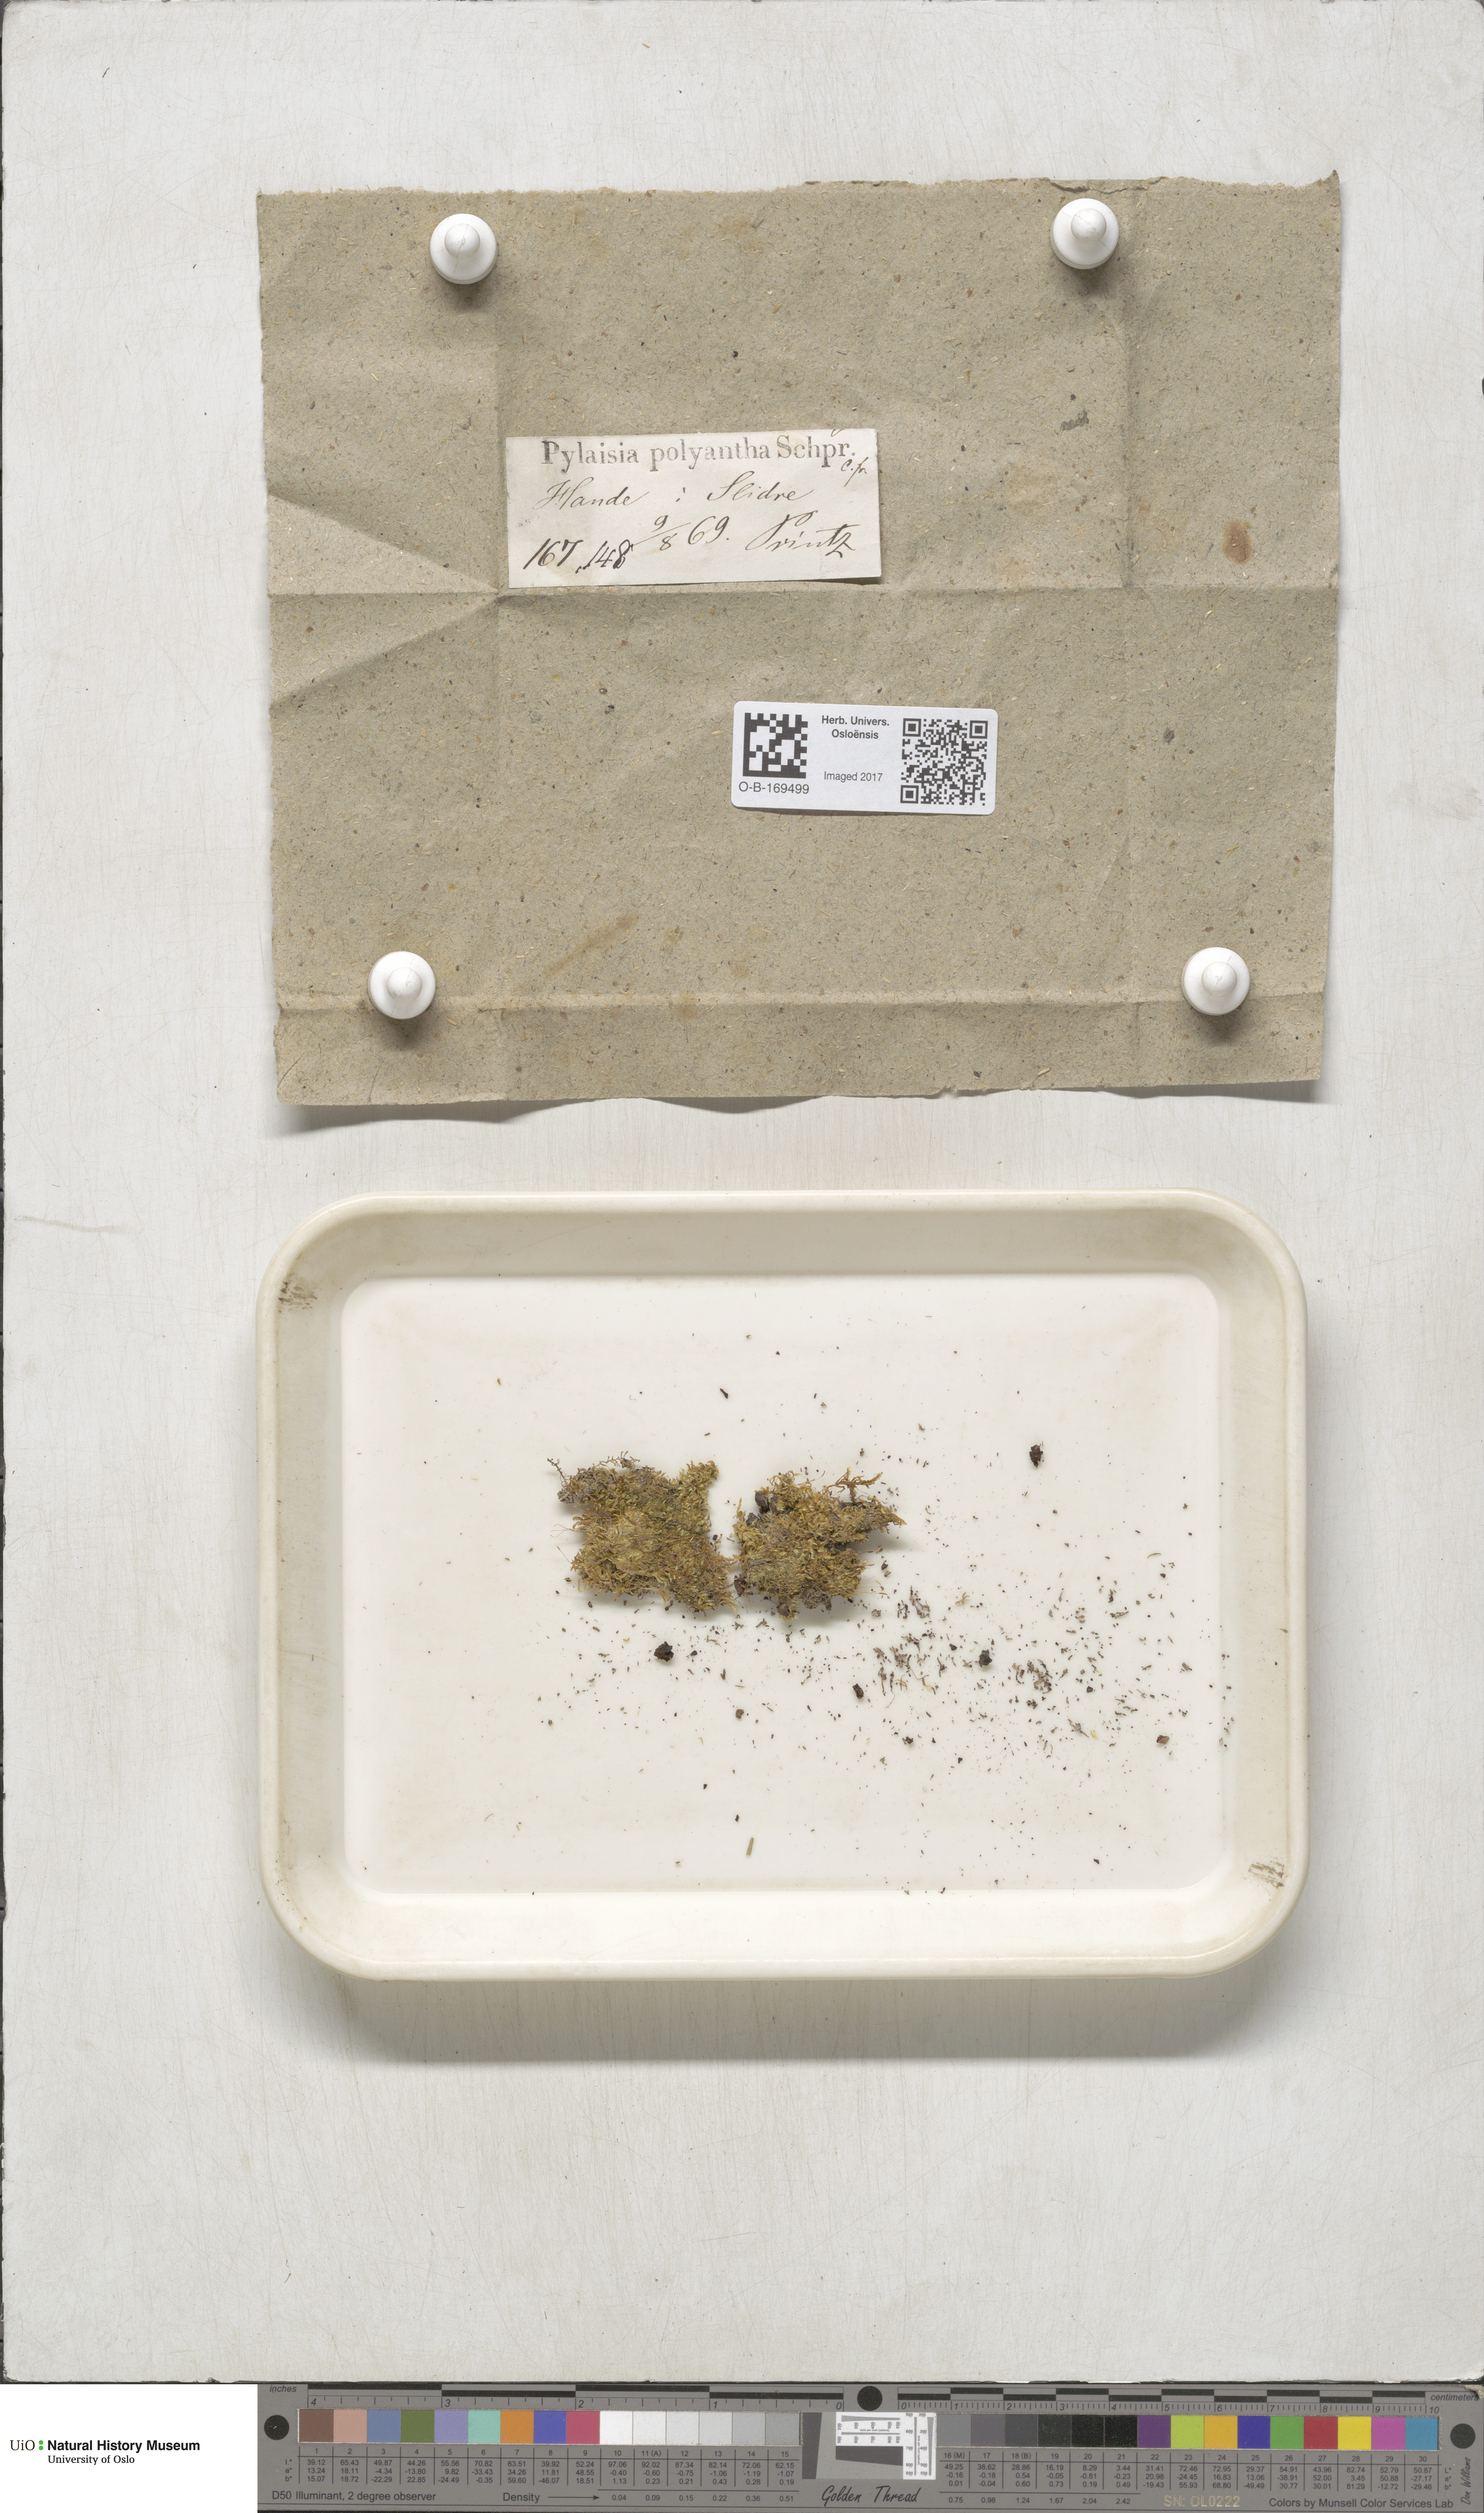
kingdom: Plantae
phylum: Bryophyta
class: Bryopsida
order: Hypnales
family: Pylaisiaceae
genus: Pylaisia
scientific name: Pylaisia polyantha
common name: Many-flowered leskea
